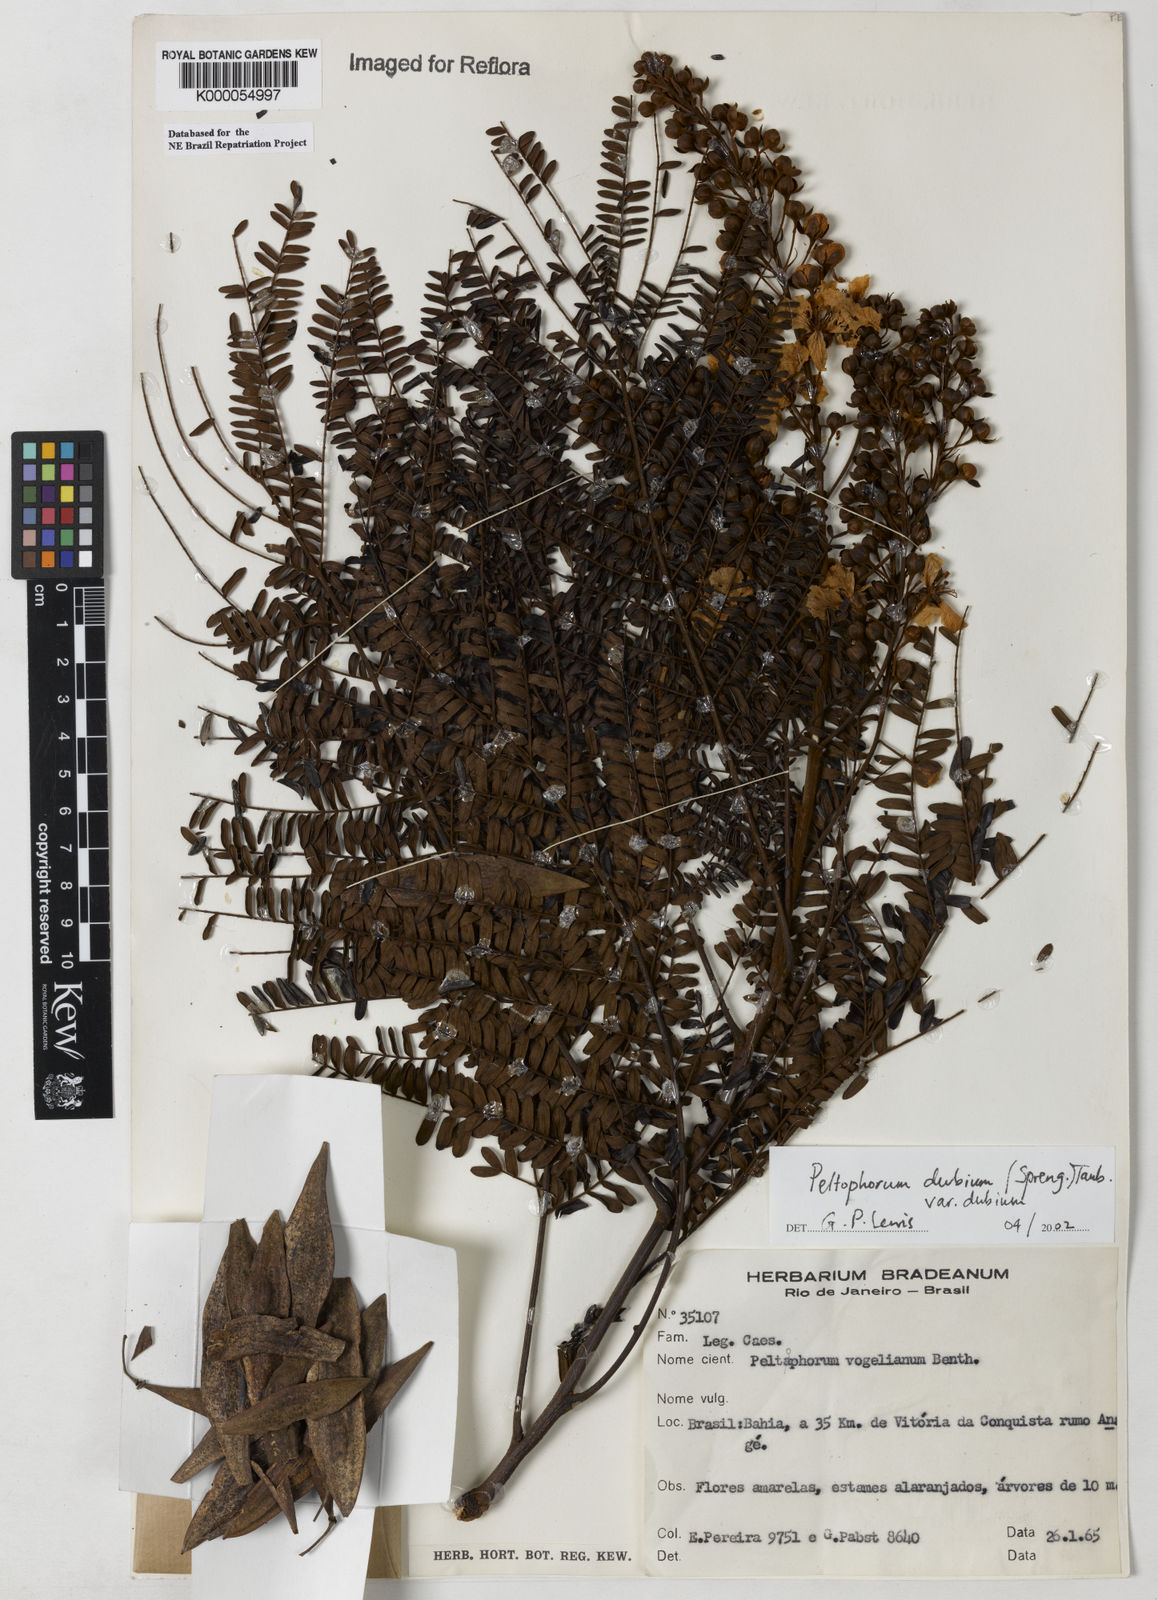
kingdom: Plantae
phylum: Tracheophyta
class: Magnoliopsida
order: Fabales
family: Fabaceae
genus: Peltophorum
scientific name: Peltophorum dubium
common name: Horsebush
